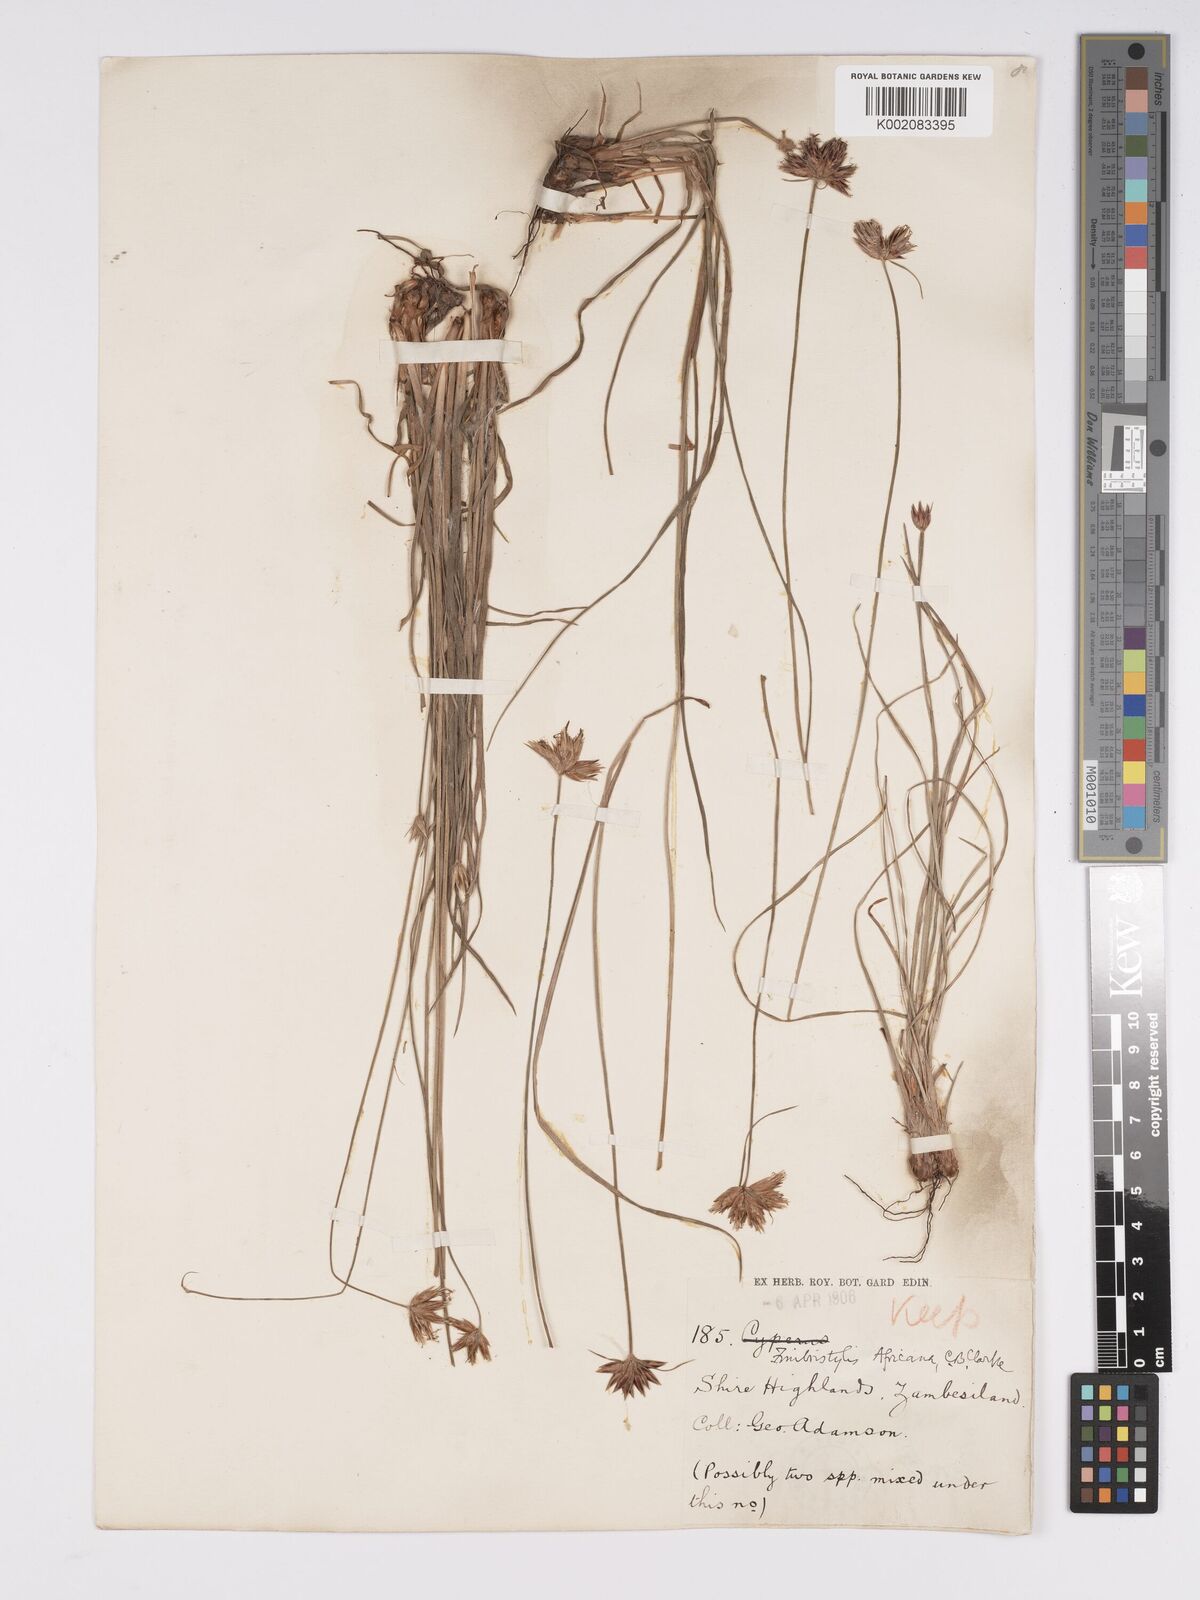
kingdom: Plantae
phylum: Tracheophyta
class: Liliopsida
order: Poales
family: Cyperaceae
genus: Bulbostylis
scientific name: Bulbostylis pilosa
